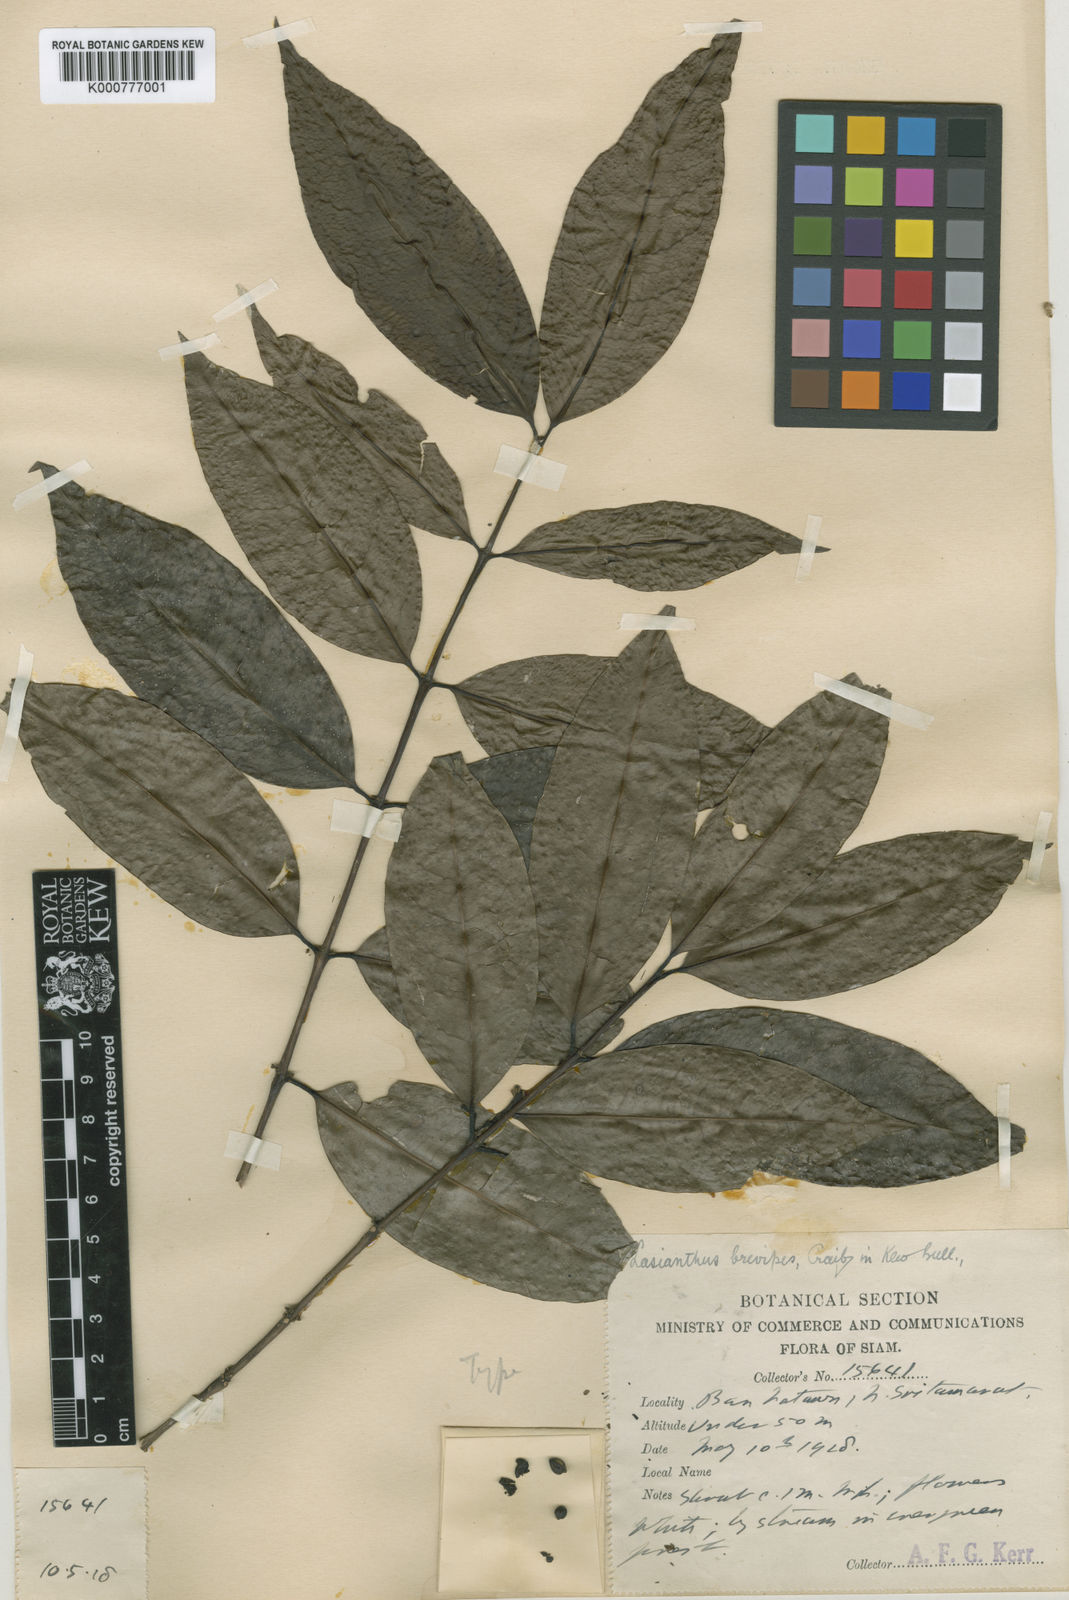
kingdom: Plantae
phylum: Tracheophyta
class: Magnoliopsida
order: Gentianales
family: Rubiaceae
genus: Lasianthus
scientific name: Lasianthus viridiramulis
